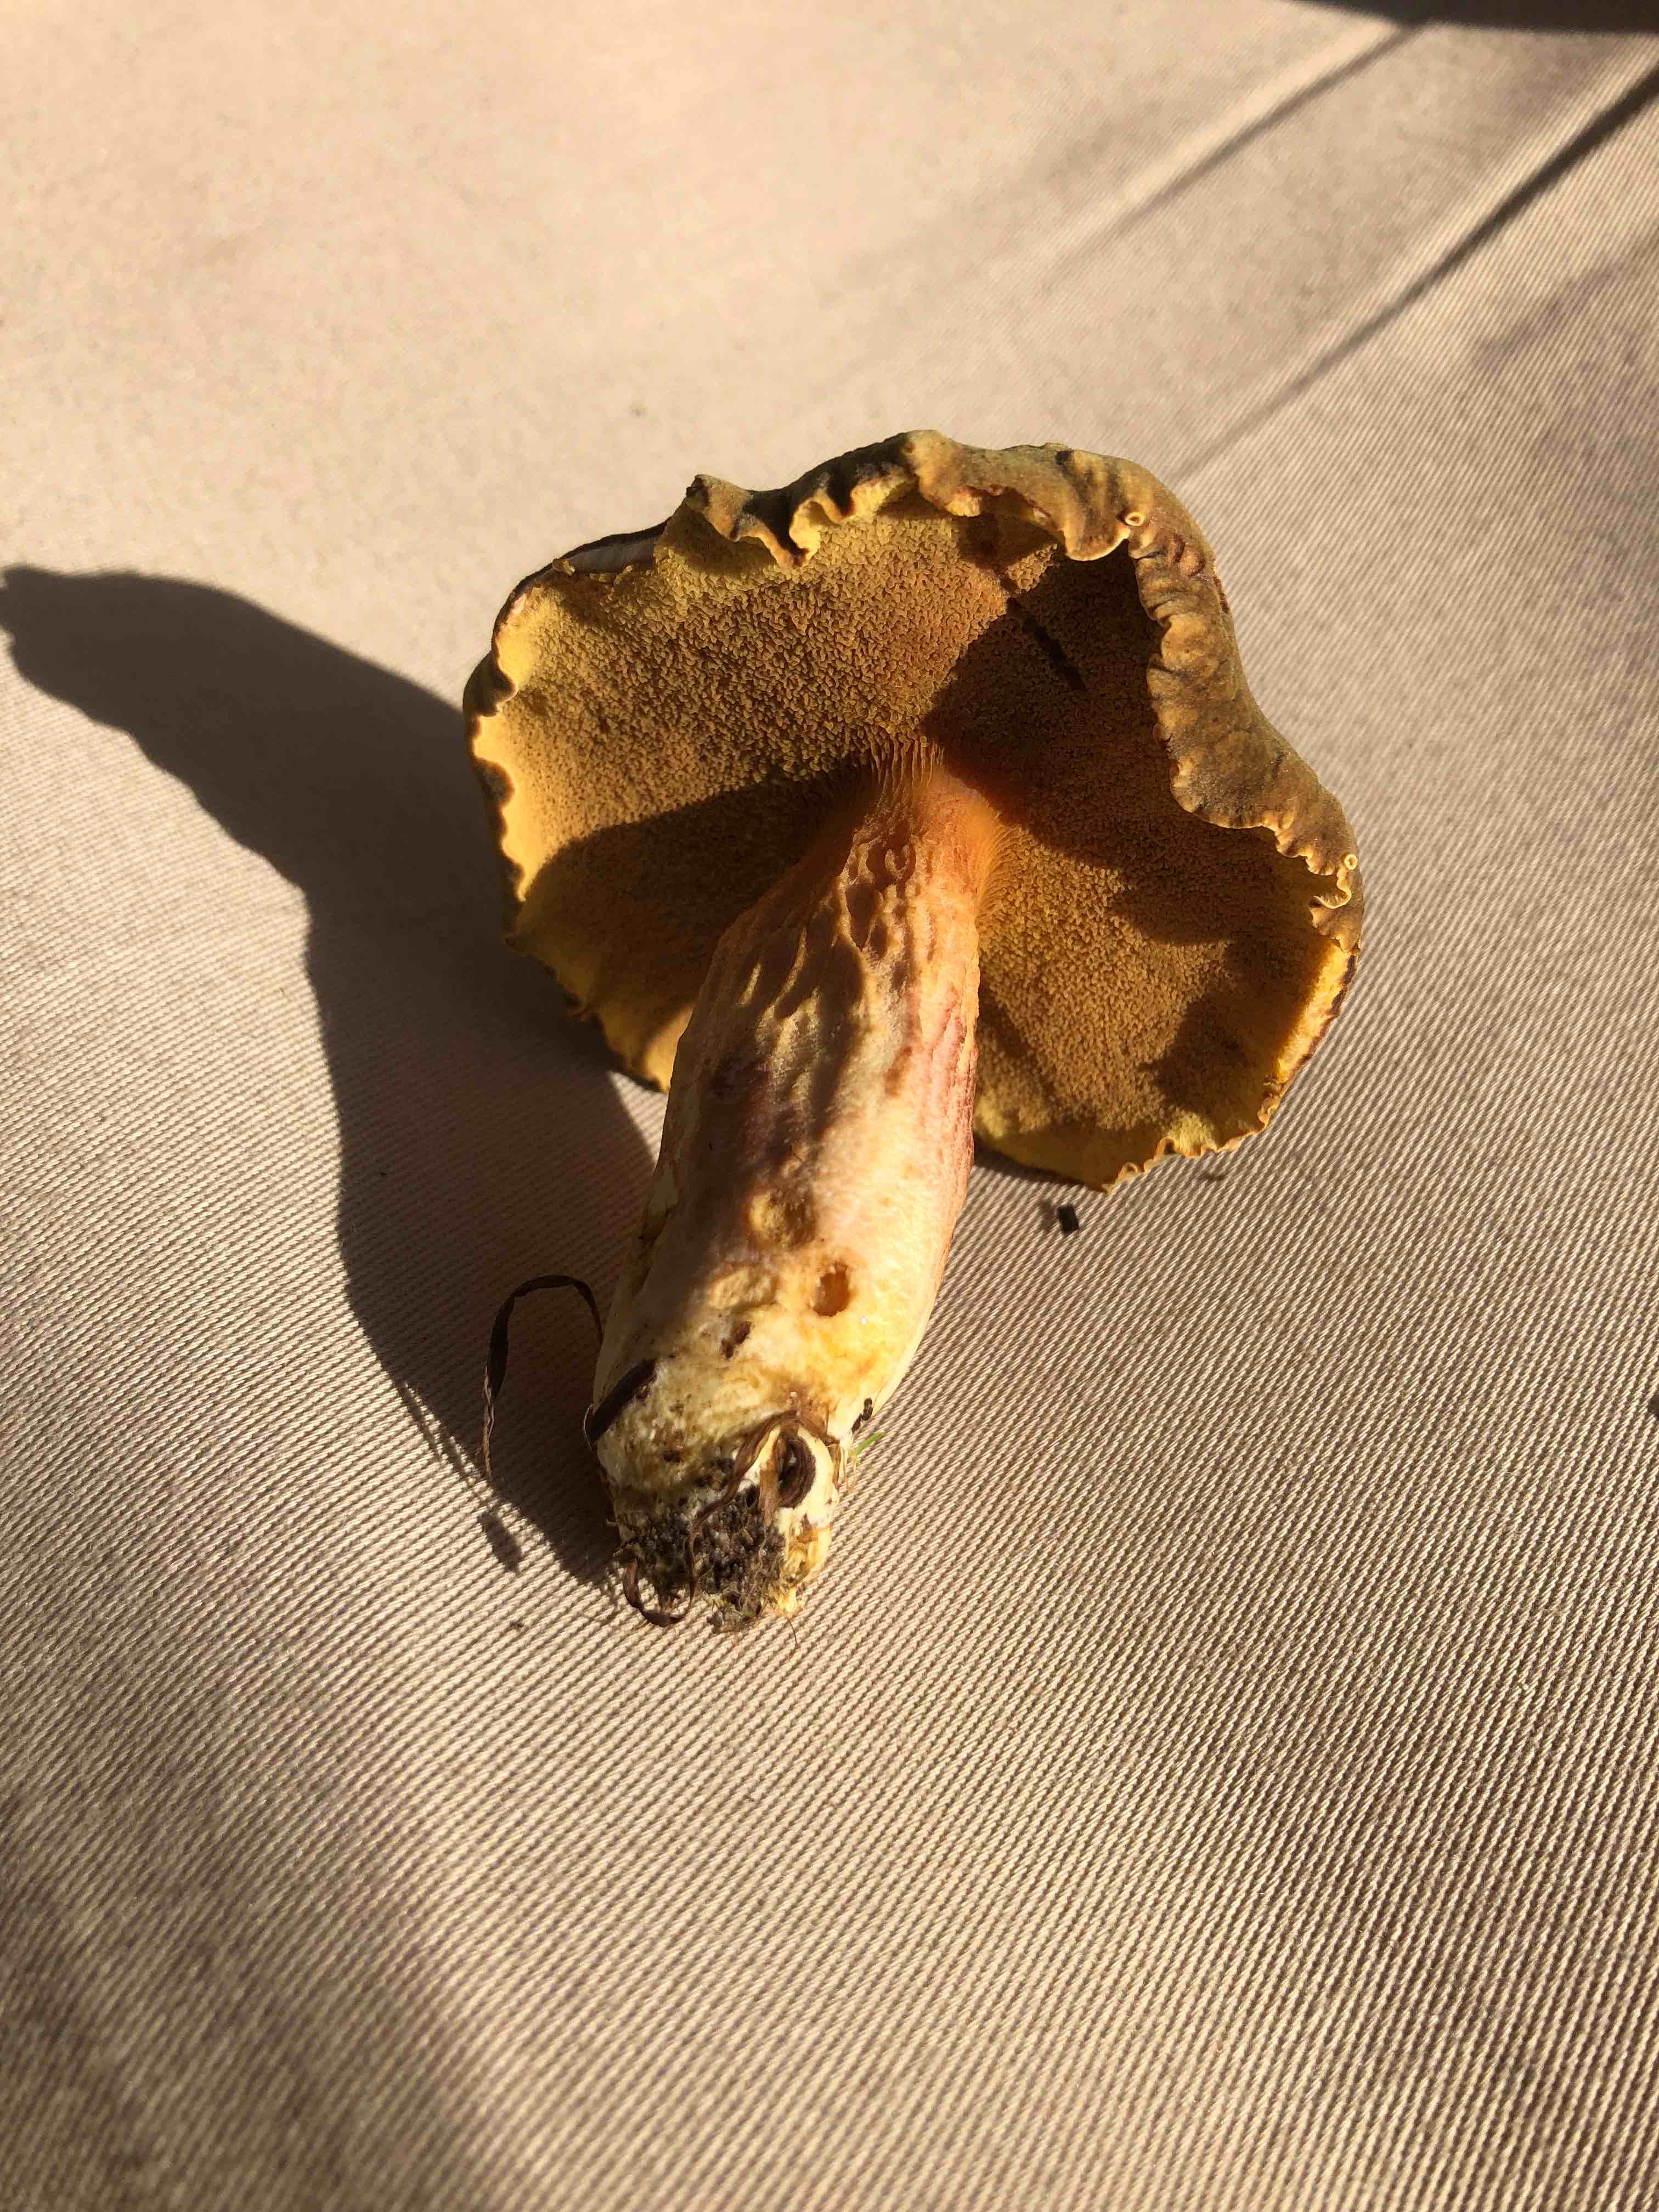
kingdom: Fungi
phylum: Basidiomycota
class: Agaricomycetes
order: Boletales
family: Boletaceae
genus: Xerocomus
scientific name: Xerocomus ferrugineus
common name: vaskeskinds-rørhat
